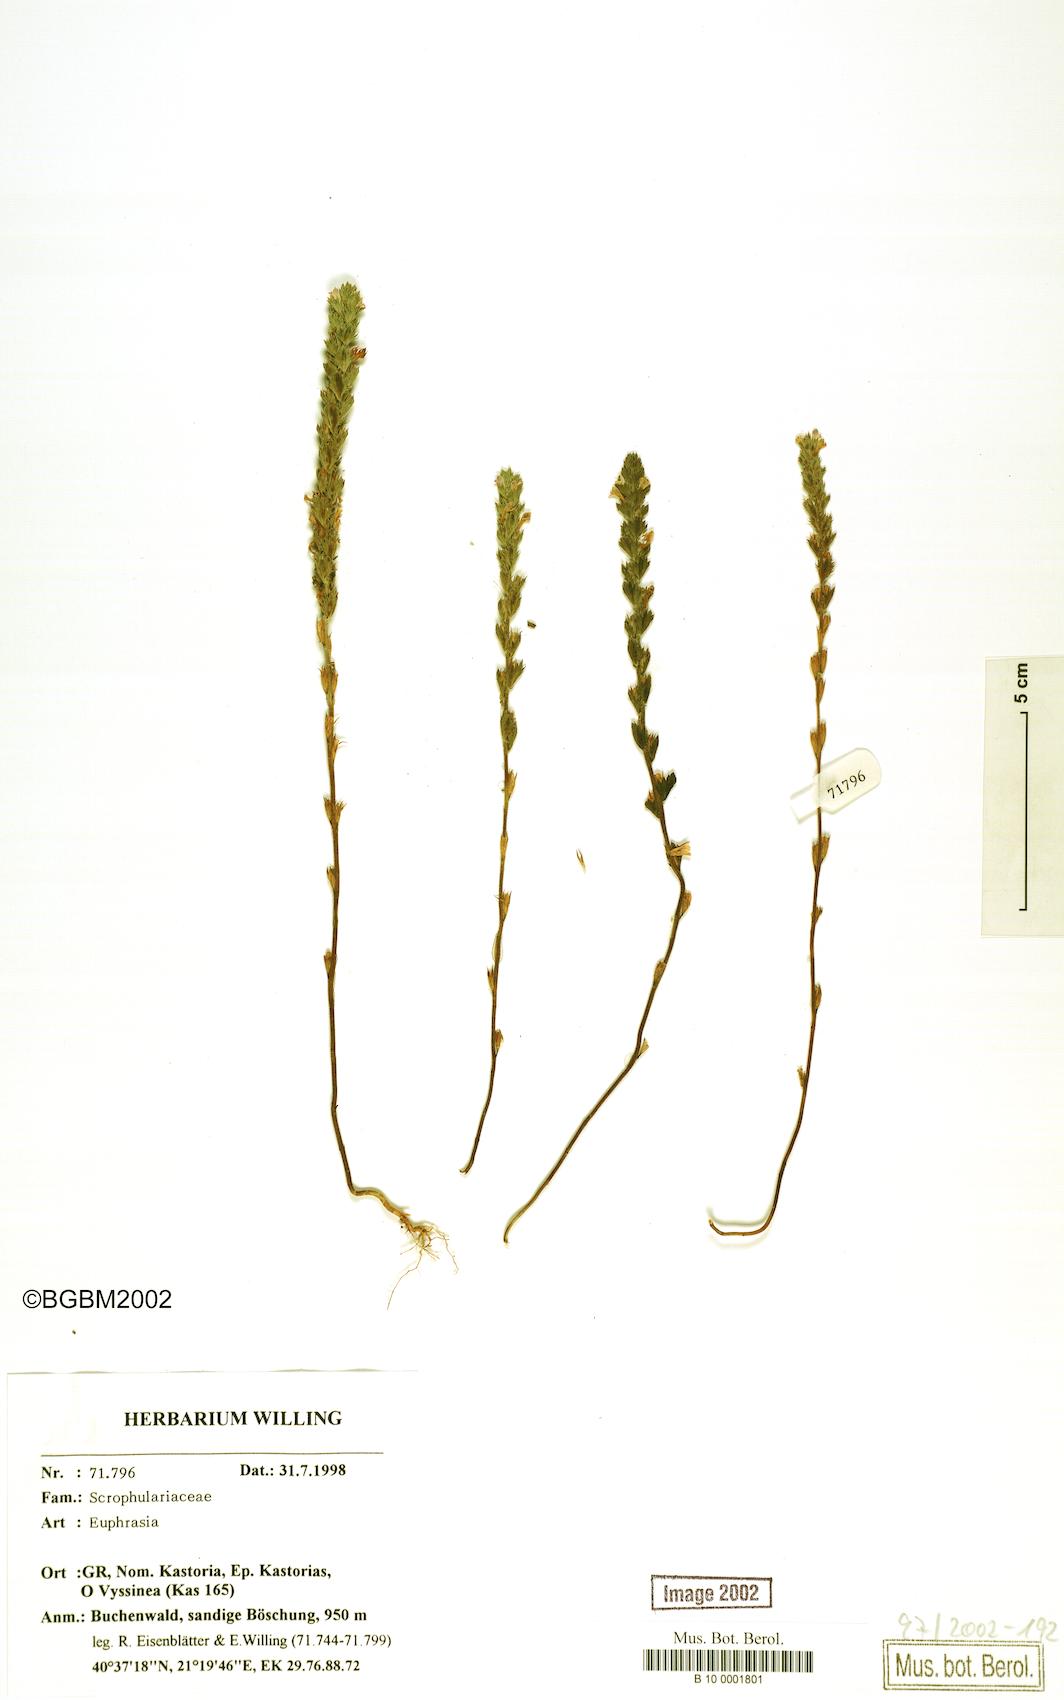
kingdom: Plantae
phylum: Tracheophyta
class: Magnoliopsida
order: Lamiales
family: Orobanchaceae
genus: Euphrasia
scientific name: Euphrasia
